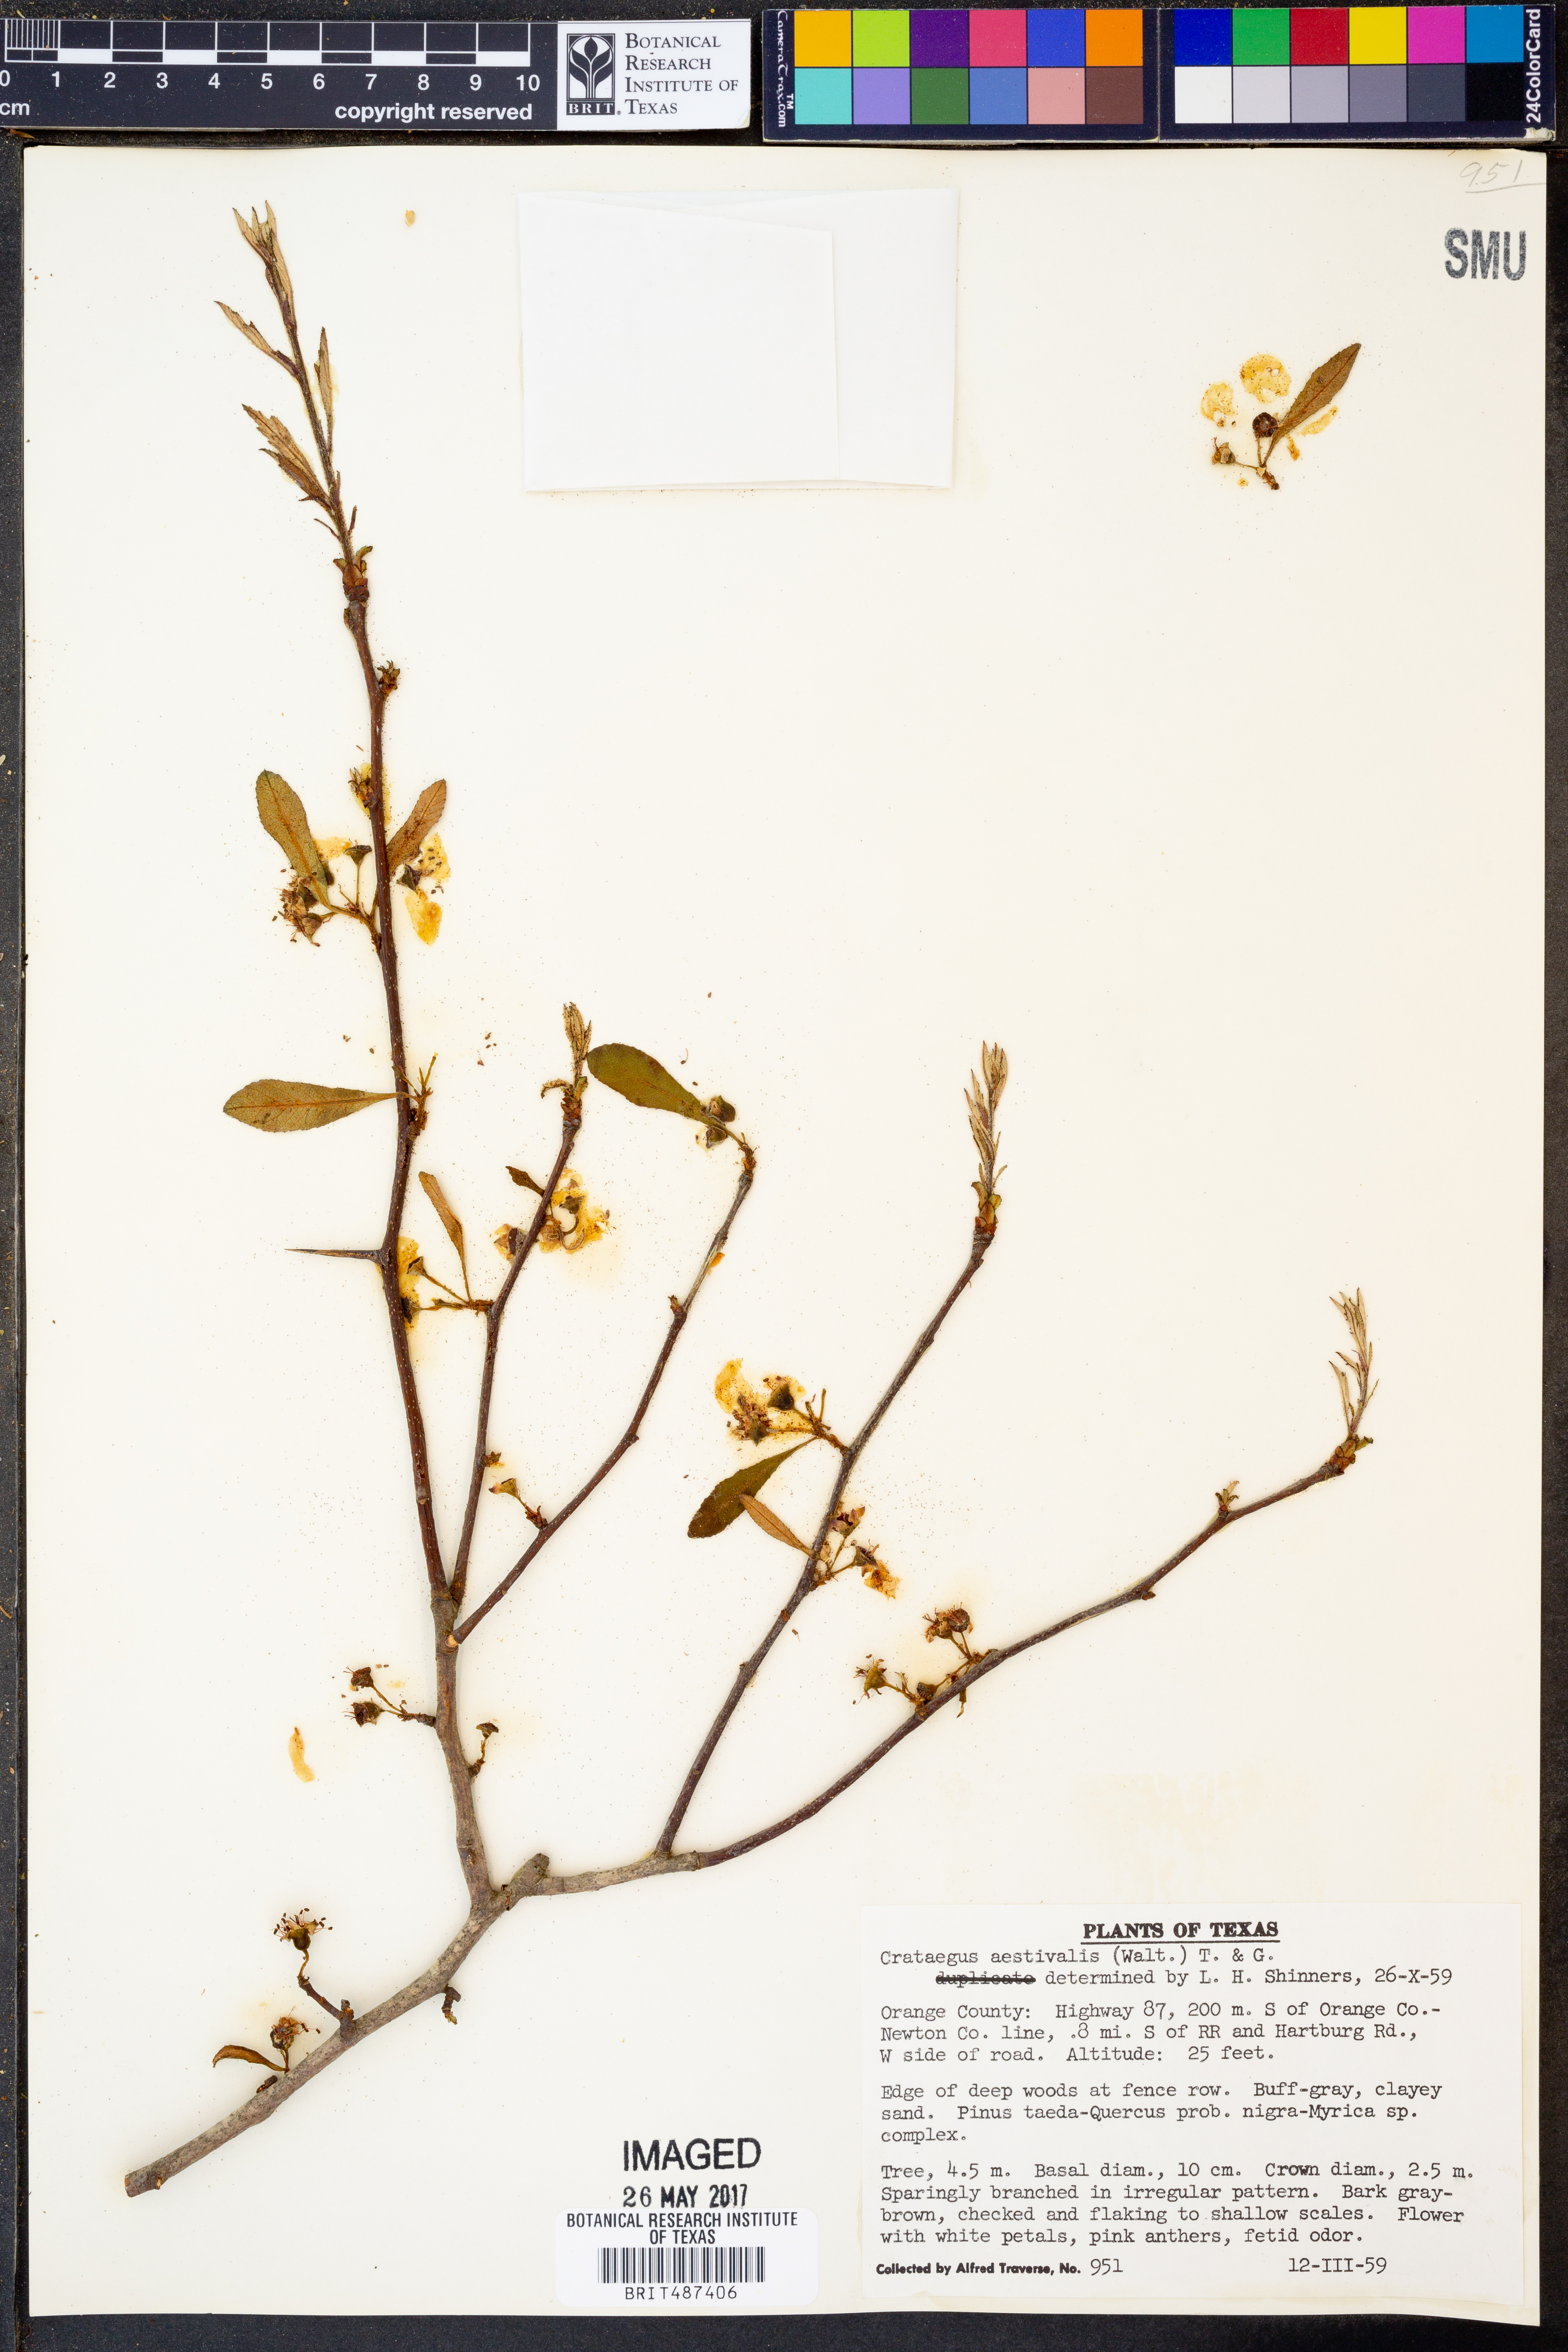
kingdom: Plantae
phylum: Tracheophyta
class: Magnoliopsida
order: Rosales
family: Rosaceae
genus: Crataegus
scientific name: Crataegus aestivalis
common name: Mayhaw
